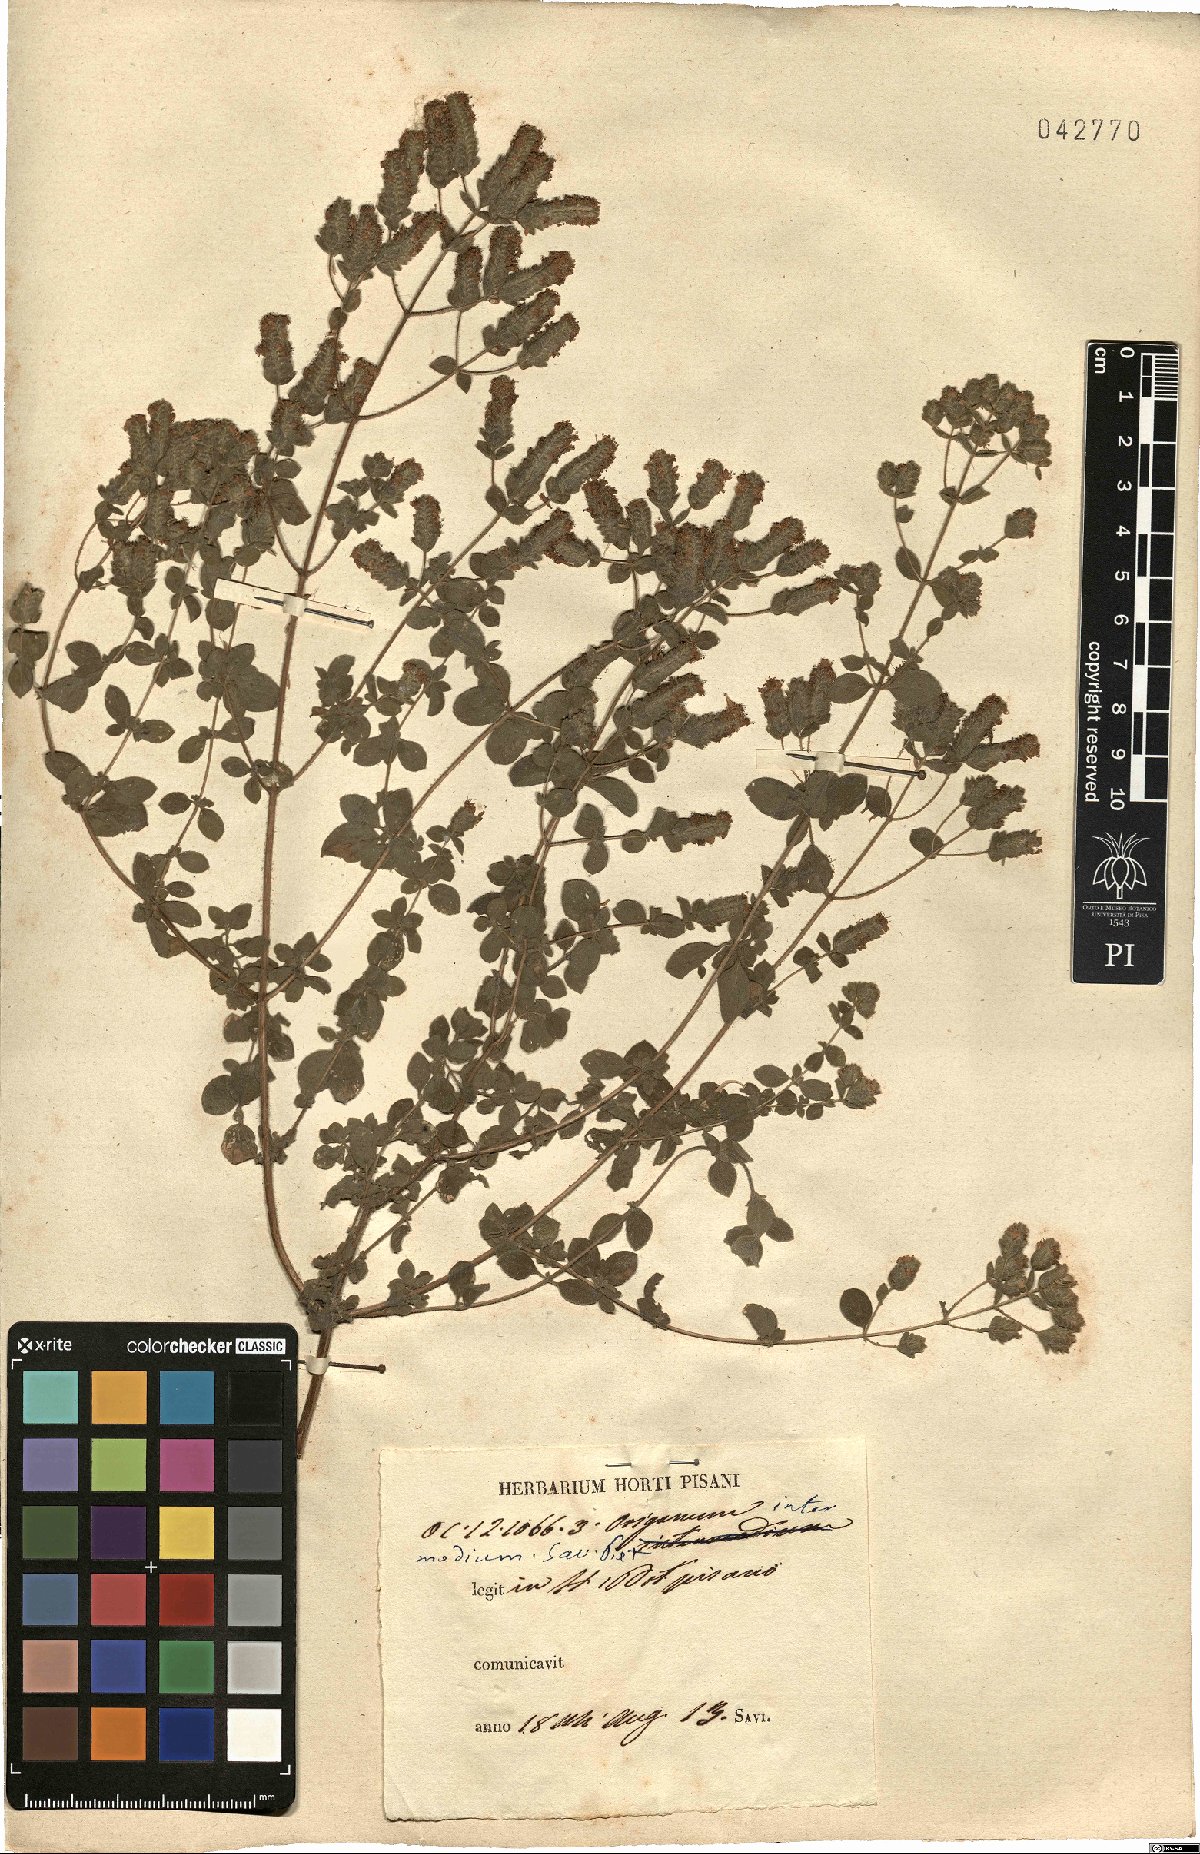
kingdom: Plantae
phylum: Tracheophyta
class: Magnoliopsida
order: Lamiales
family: Lamiaceae
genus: Origanum
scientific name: Origanum intermedium
